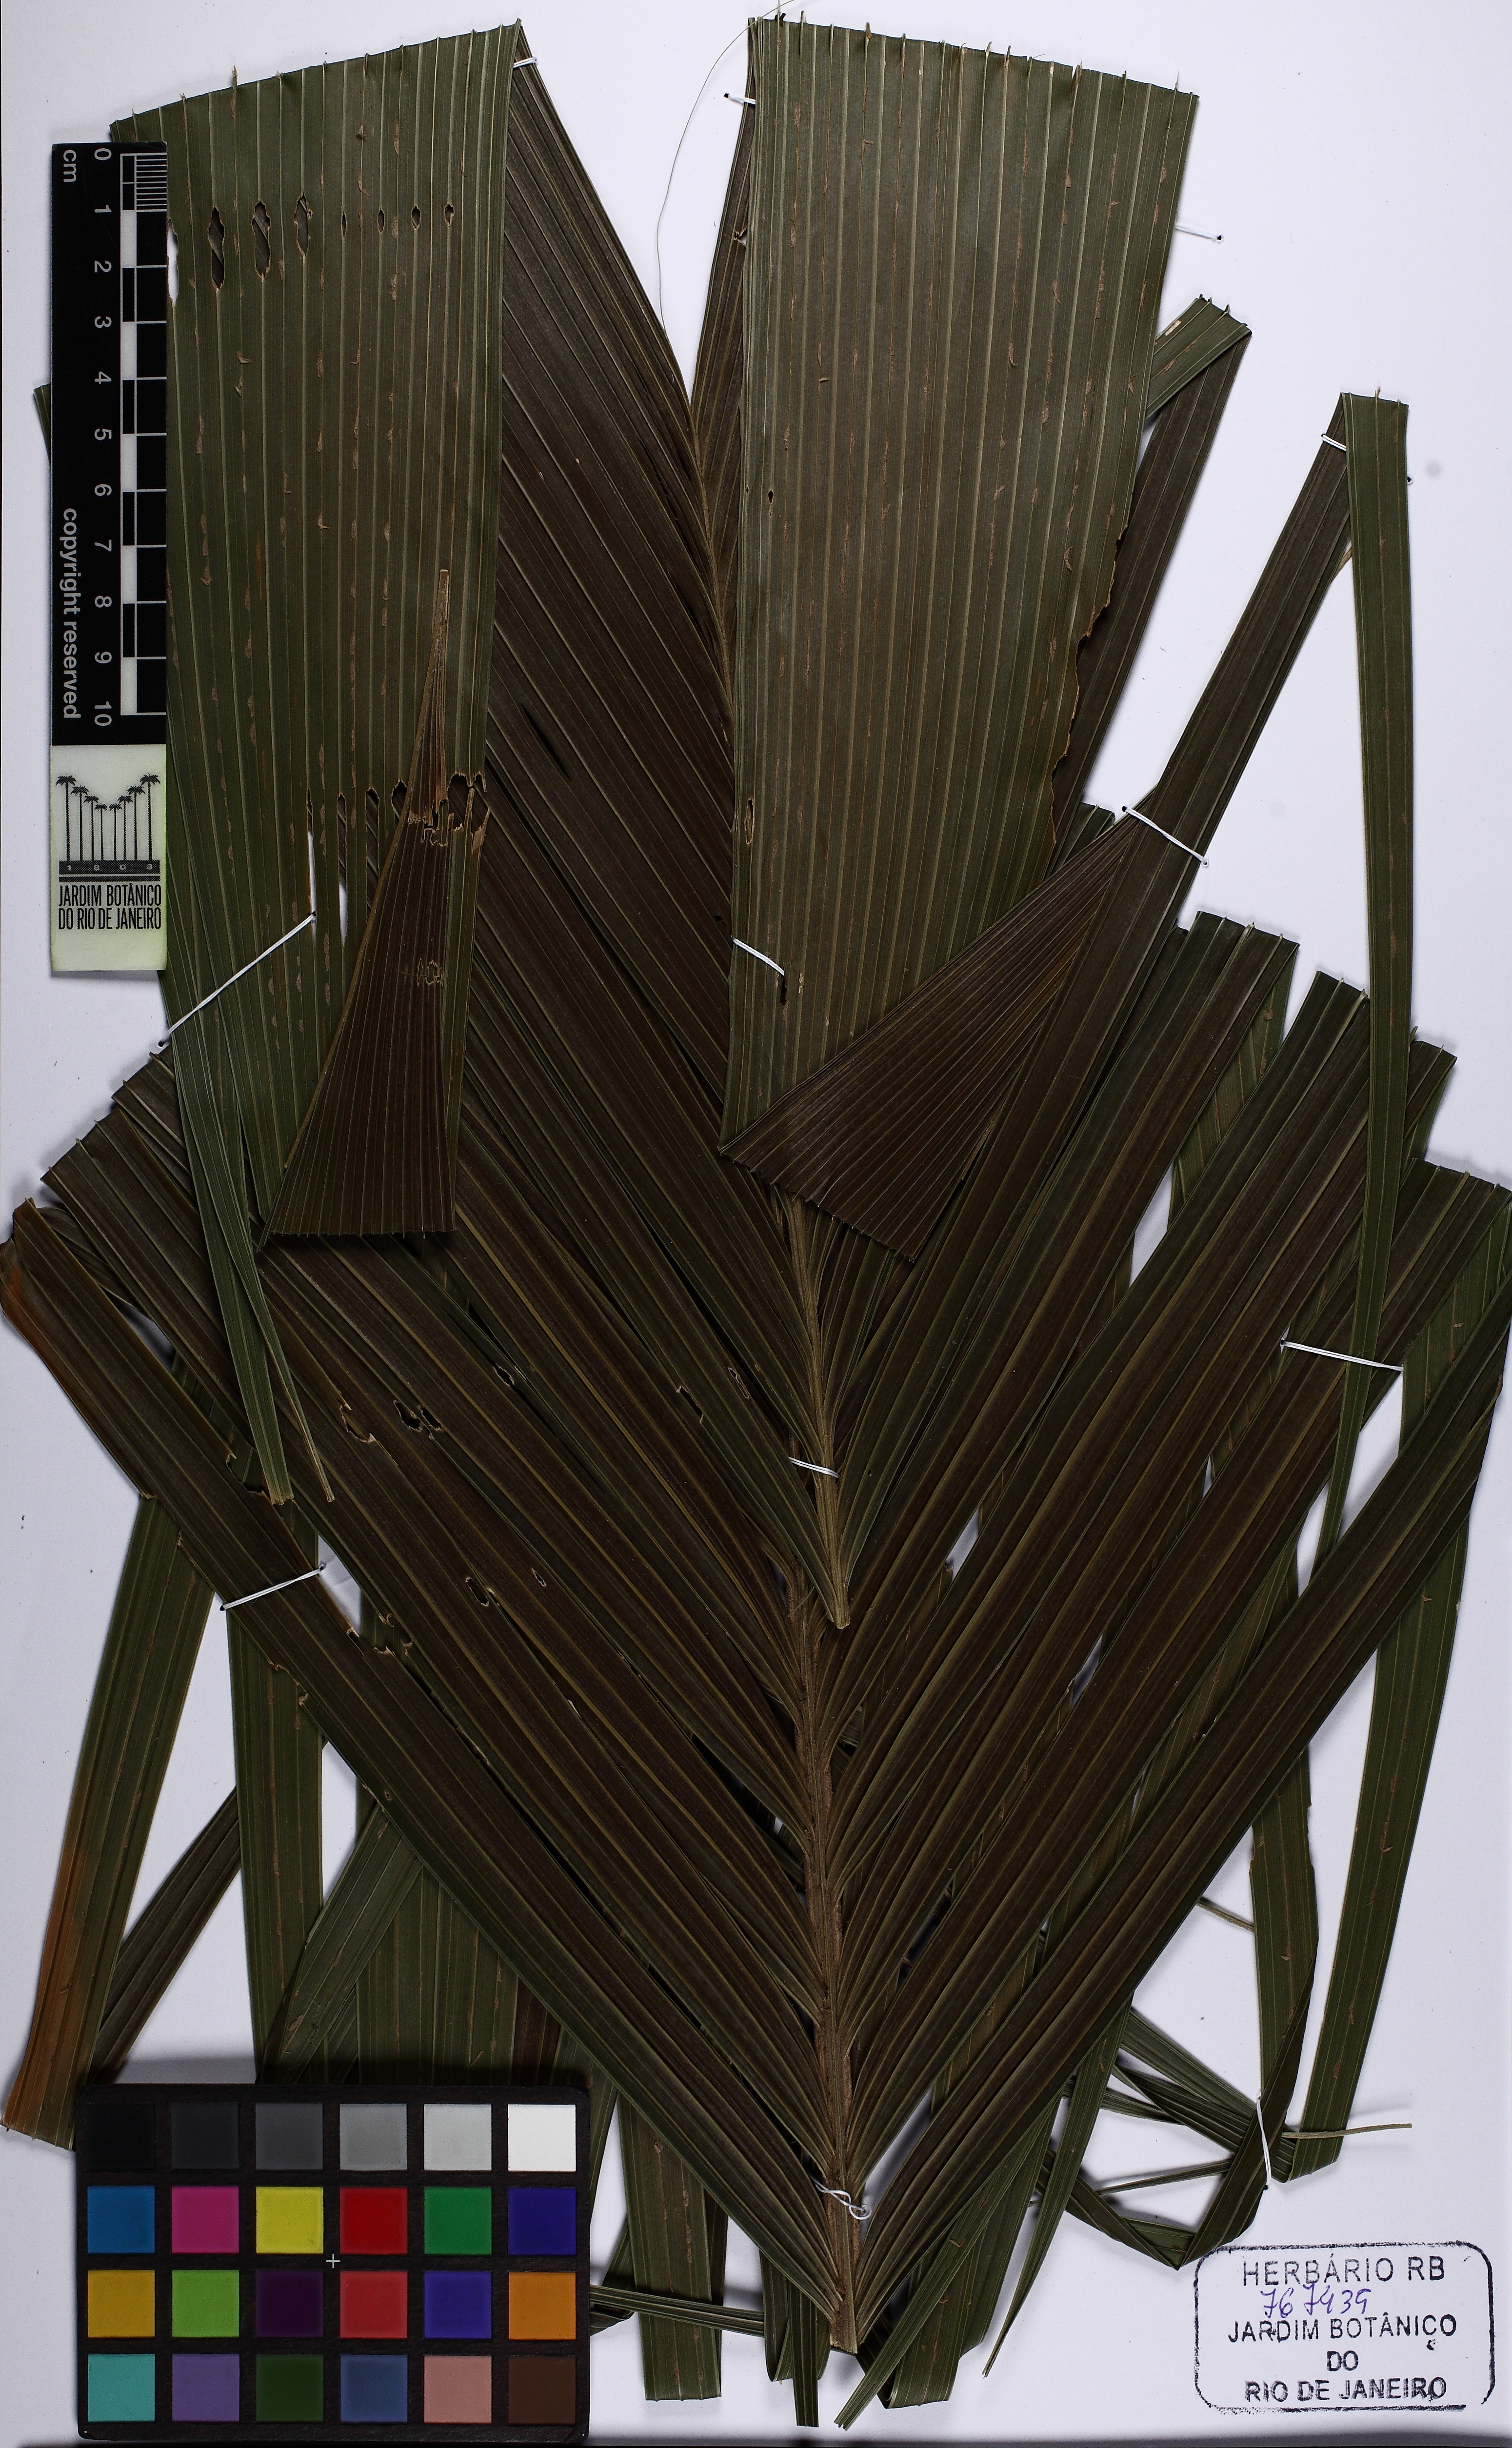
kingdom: Plantae
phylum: Tracheophyta
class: Liliopsida
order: Arecales
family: Arecaceae
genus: Geonoma
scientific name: Geonoma pohliana
